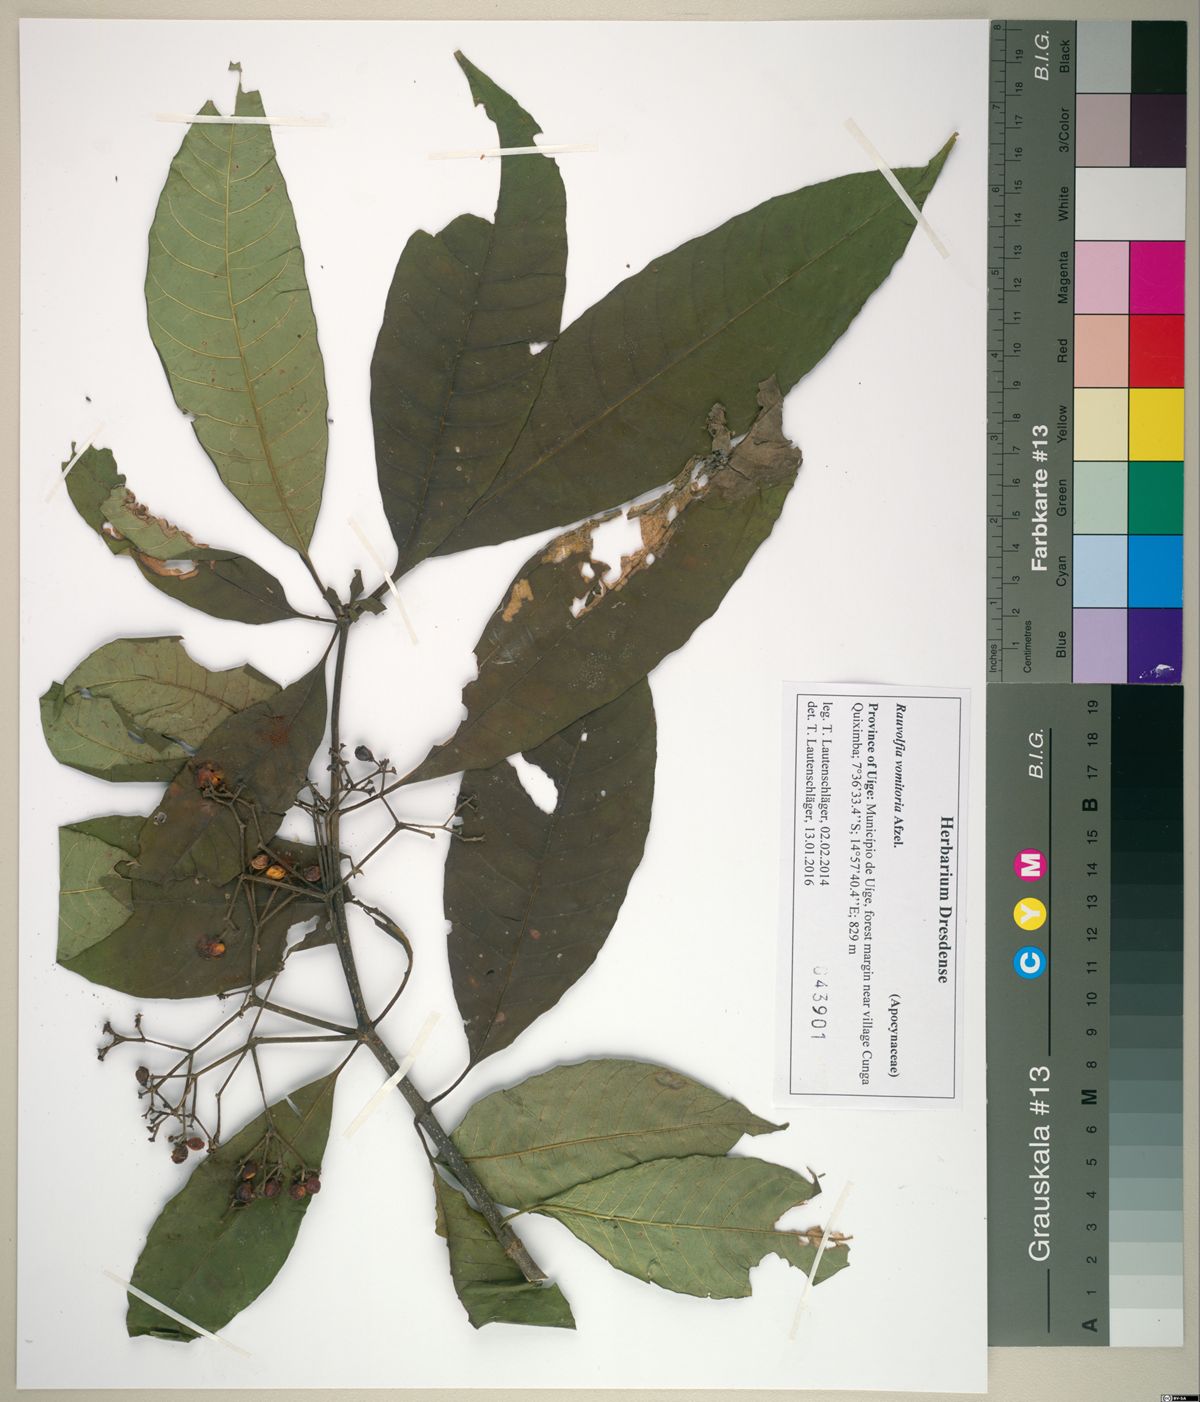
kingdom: Plantae
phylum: Tracheophyta
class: Magnoliopsida
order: Gentianales
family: Apocynaceae
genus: Rauvolfia
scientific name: Rauvolfia vomitoria
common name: Poison devil's-pepper
